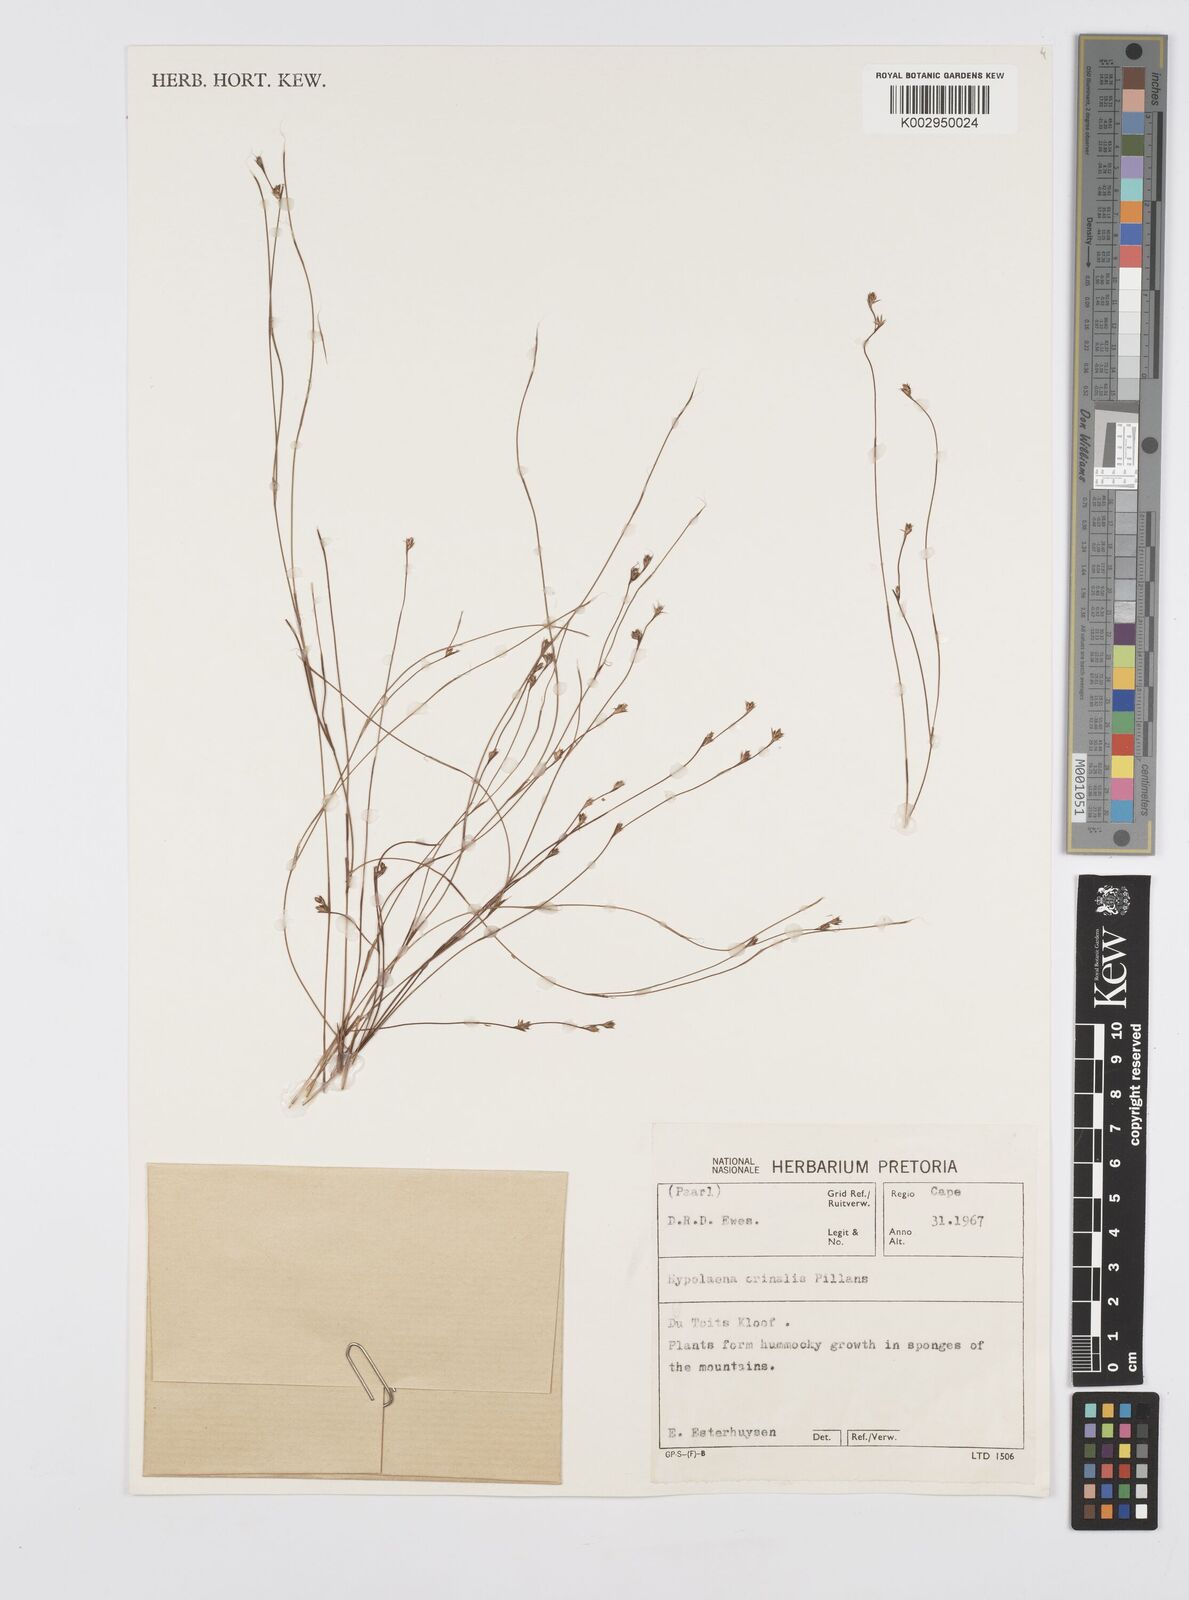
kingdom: Plantae
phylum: Tracheophyta
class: Liliopsida
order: Poales
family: Restionaceae
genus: Anthochortus
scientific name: Anthochortus
